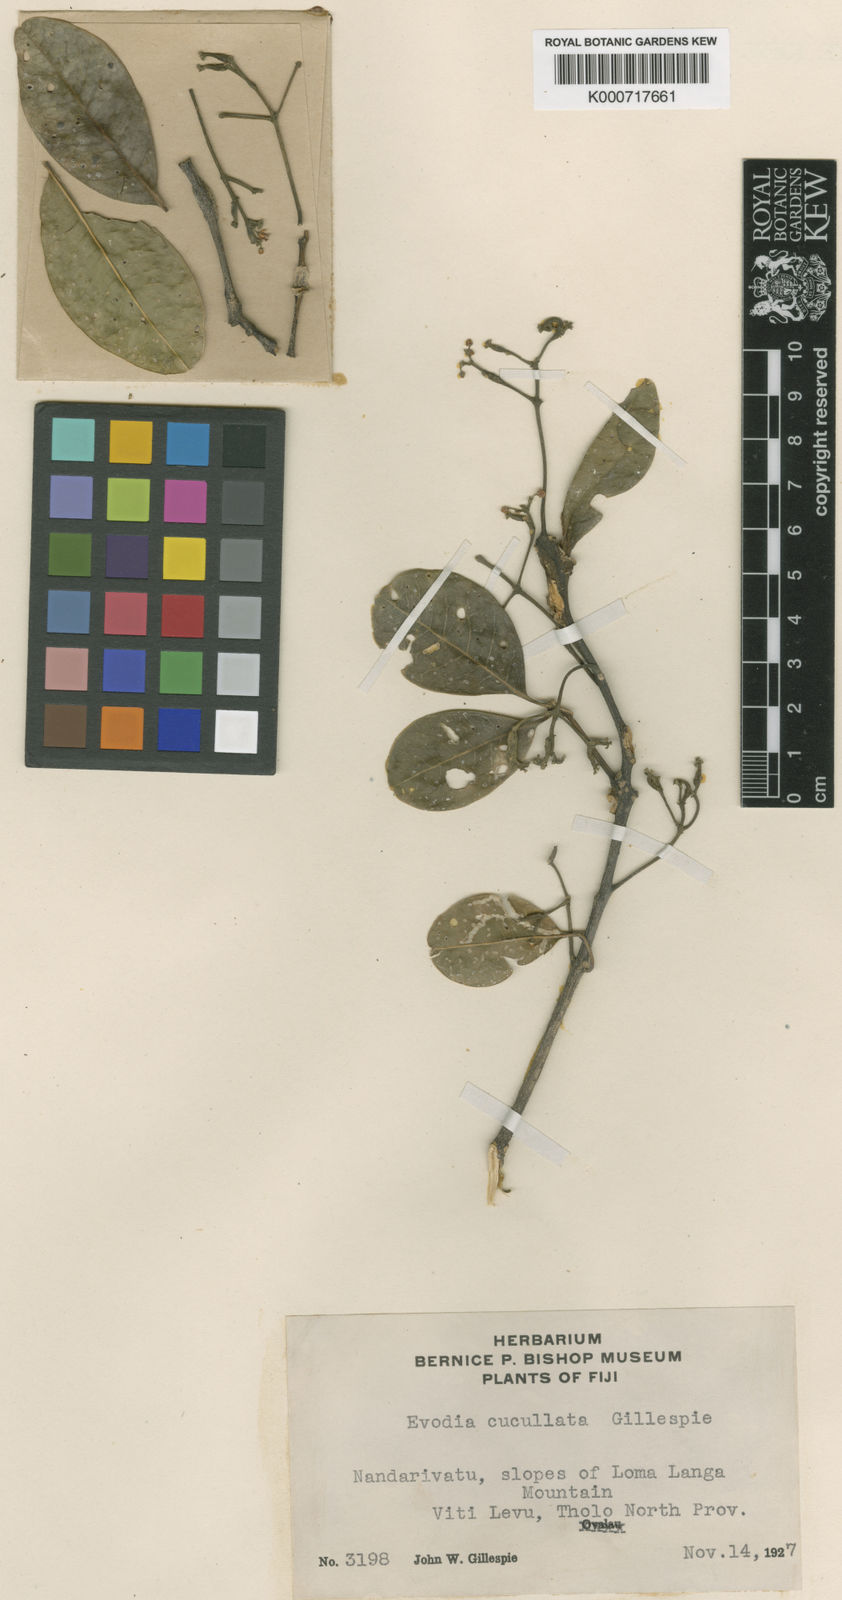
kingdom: Plantae
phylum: Tracheophyta
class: Magnoliopsida
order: Sapindales
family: Rutaceae
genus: Melicope
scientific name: Melicope cucullata
